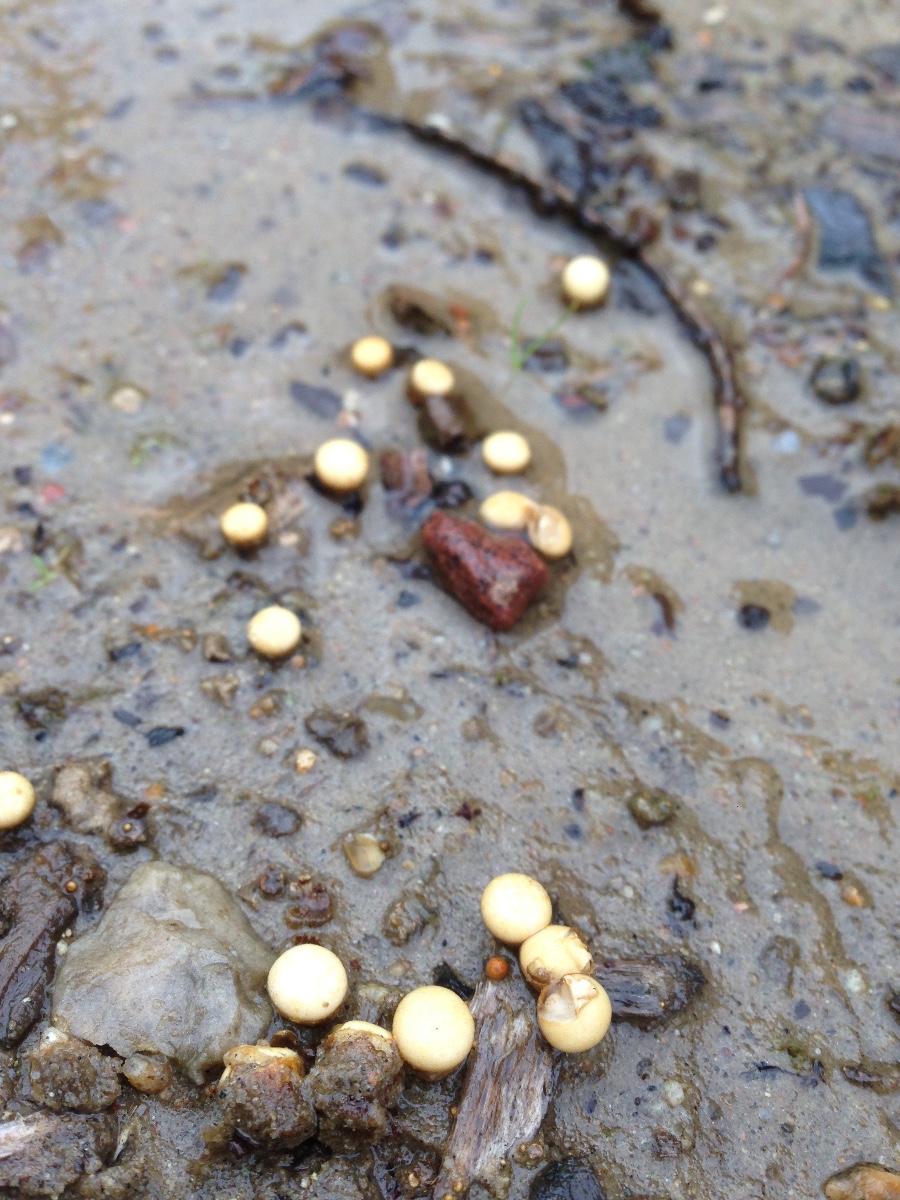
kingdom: Fungi
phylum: Basidiomycota
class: Agaricomycetes
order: Agaricales
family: Nidulariaceae
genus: Crucibulum
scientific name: Crucibulum crucibuliforme
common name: krukkesvamp
